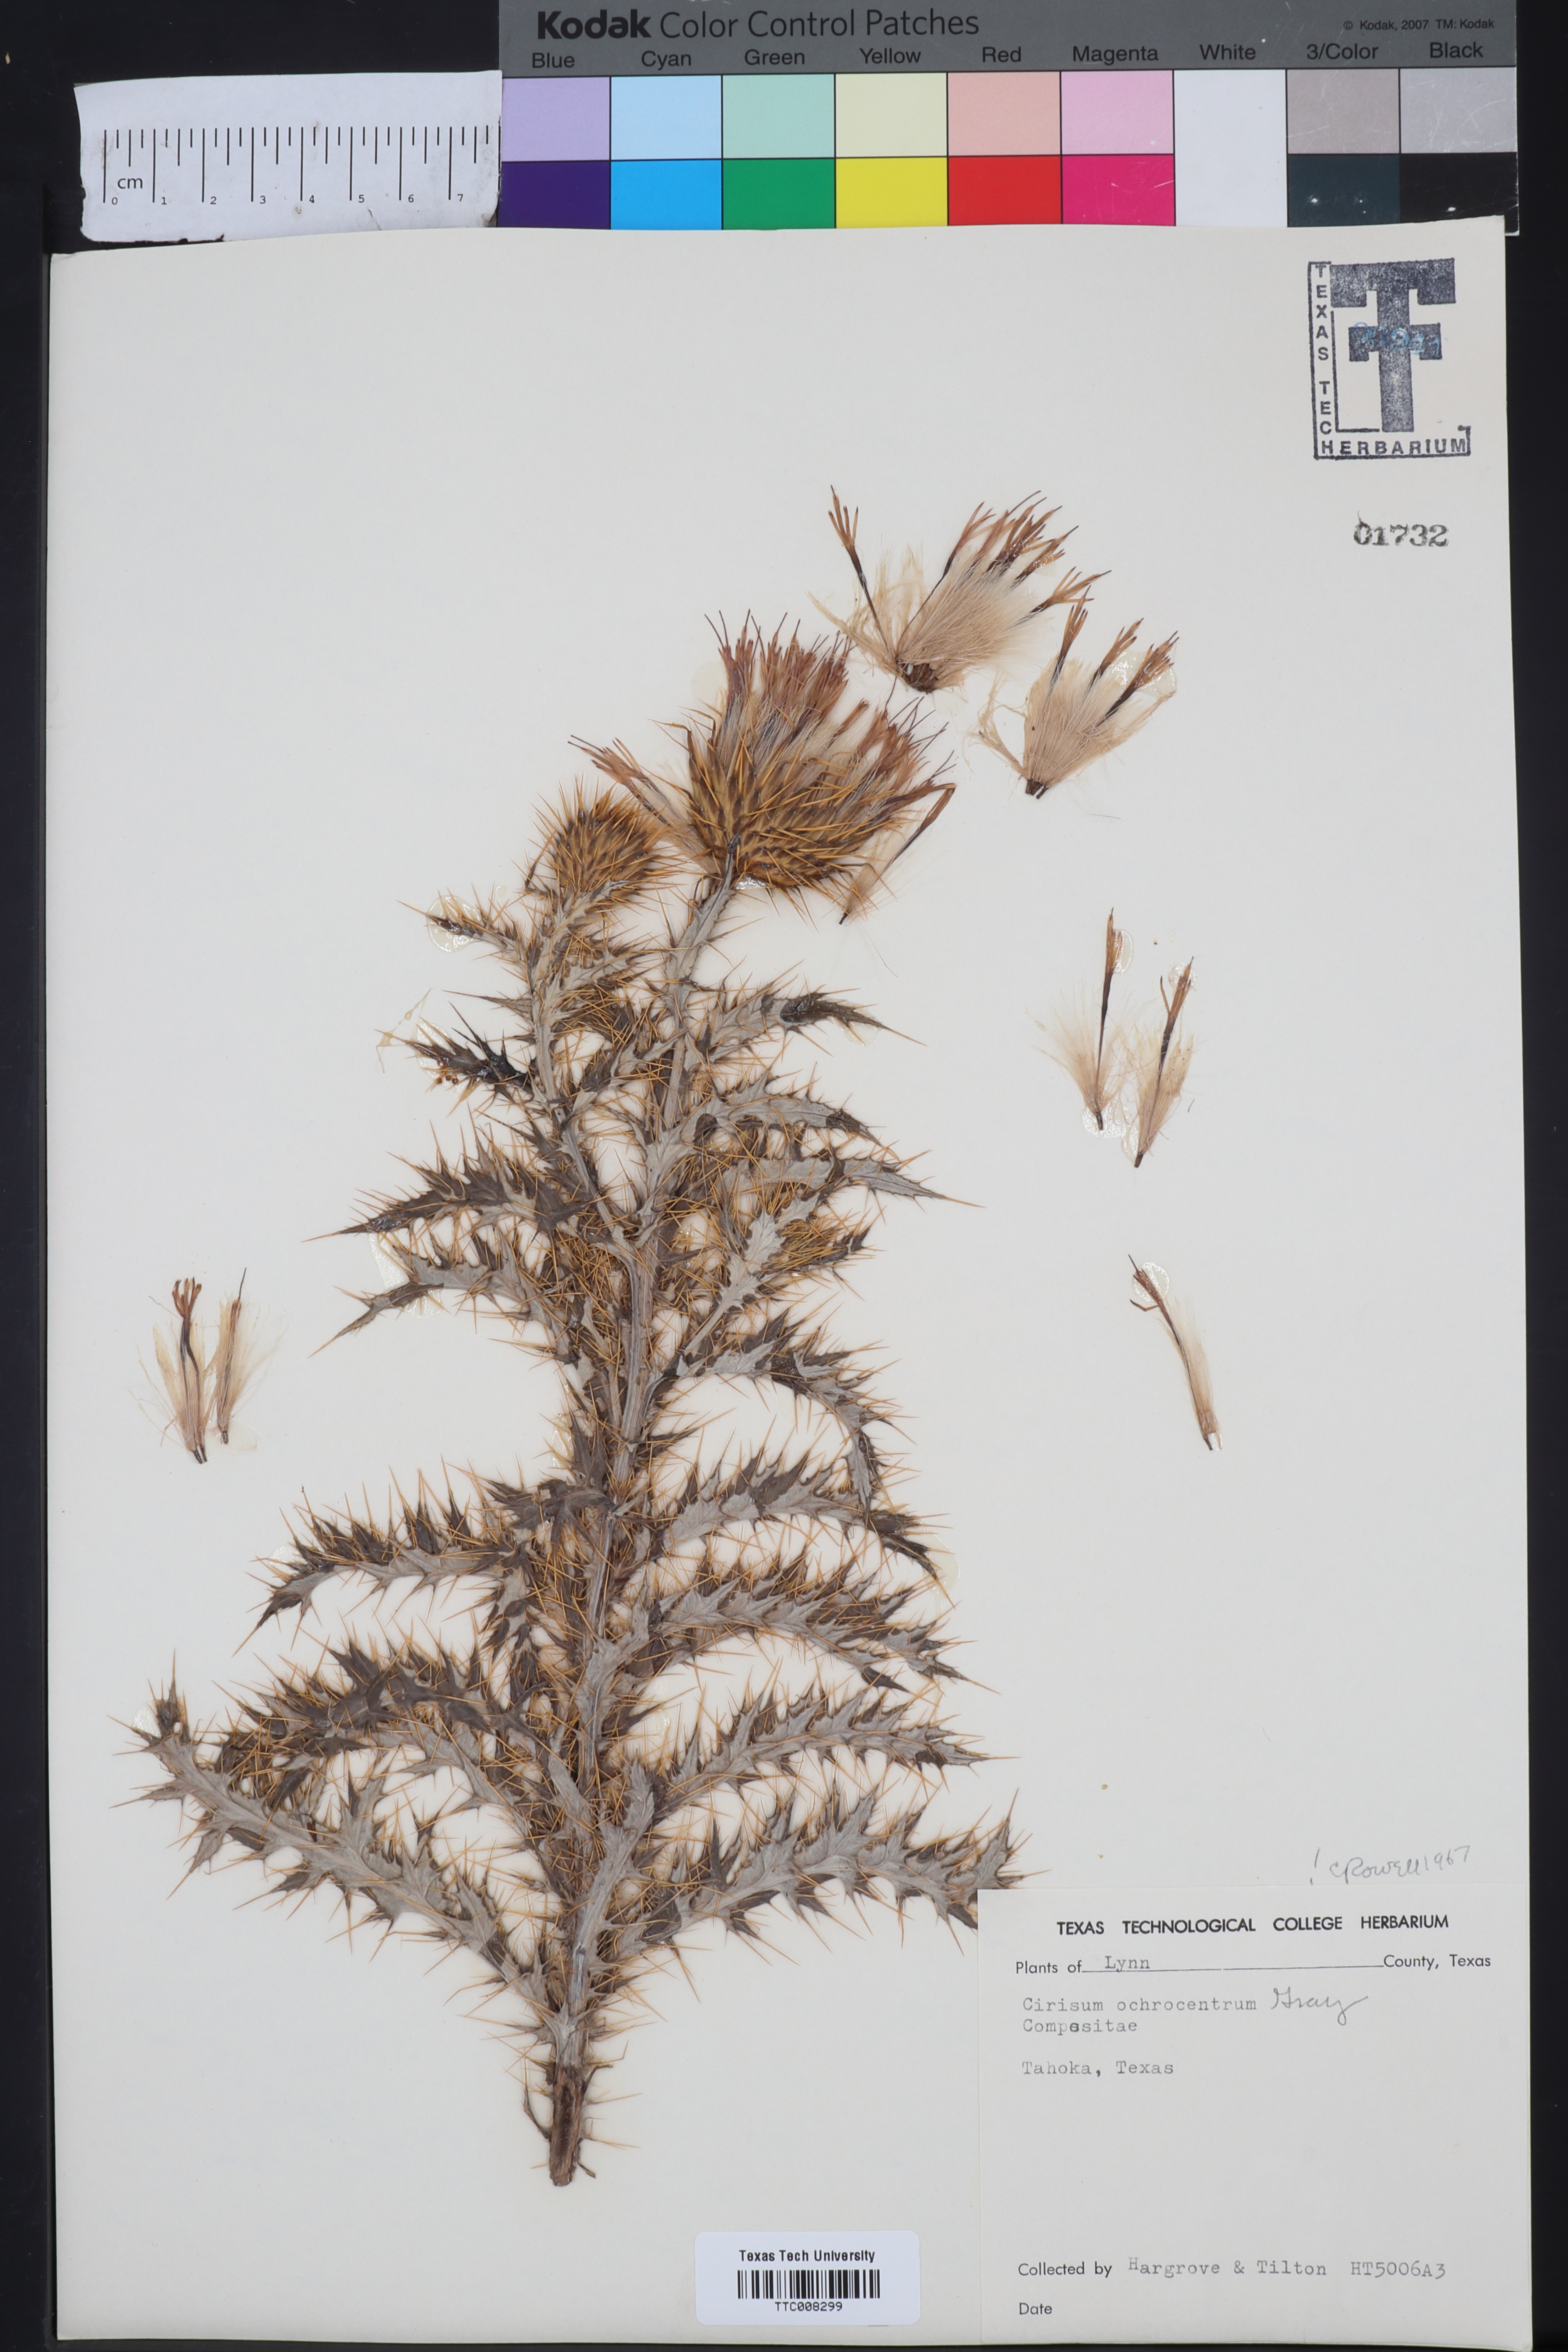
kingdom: Plantae
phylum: Tracheophyta
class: Magnoliopsida
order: Asterales
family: Asteraceae
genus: Cirsium
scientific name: Cirsium ochrocentrum
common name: Yellow-spine thistle
